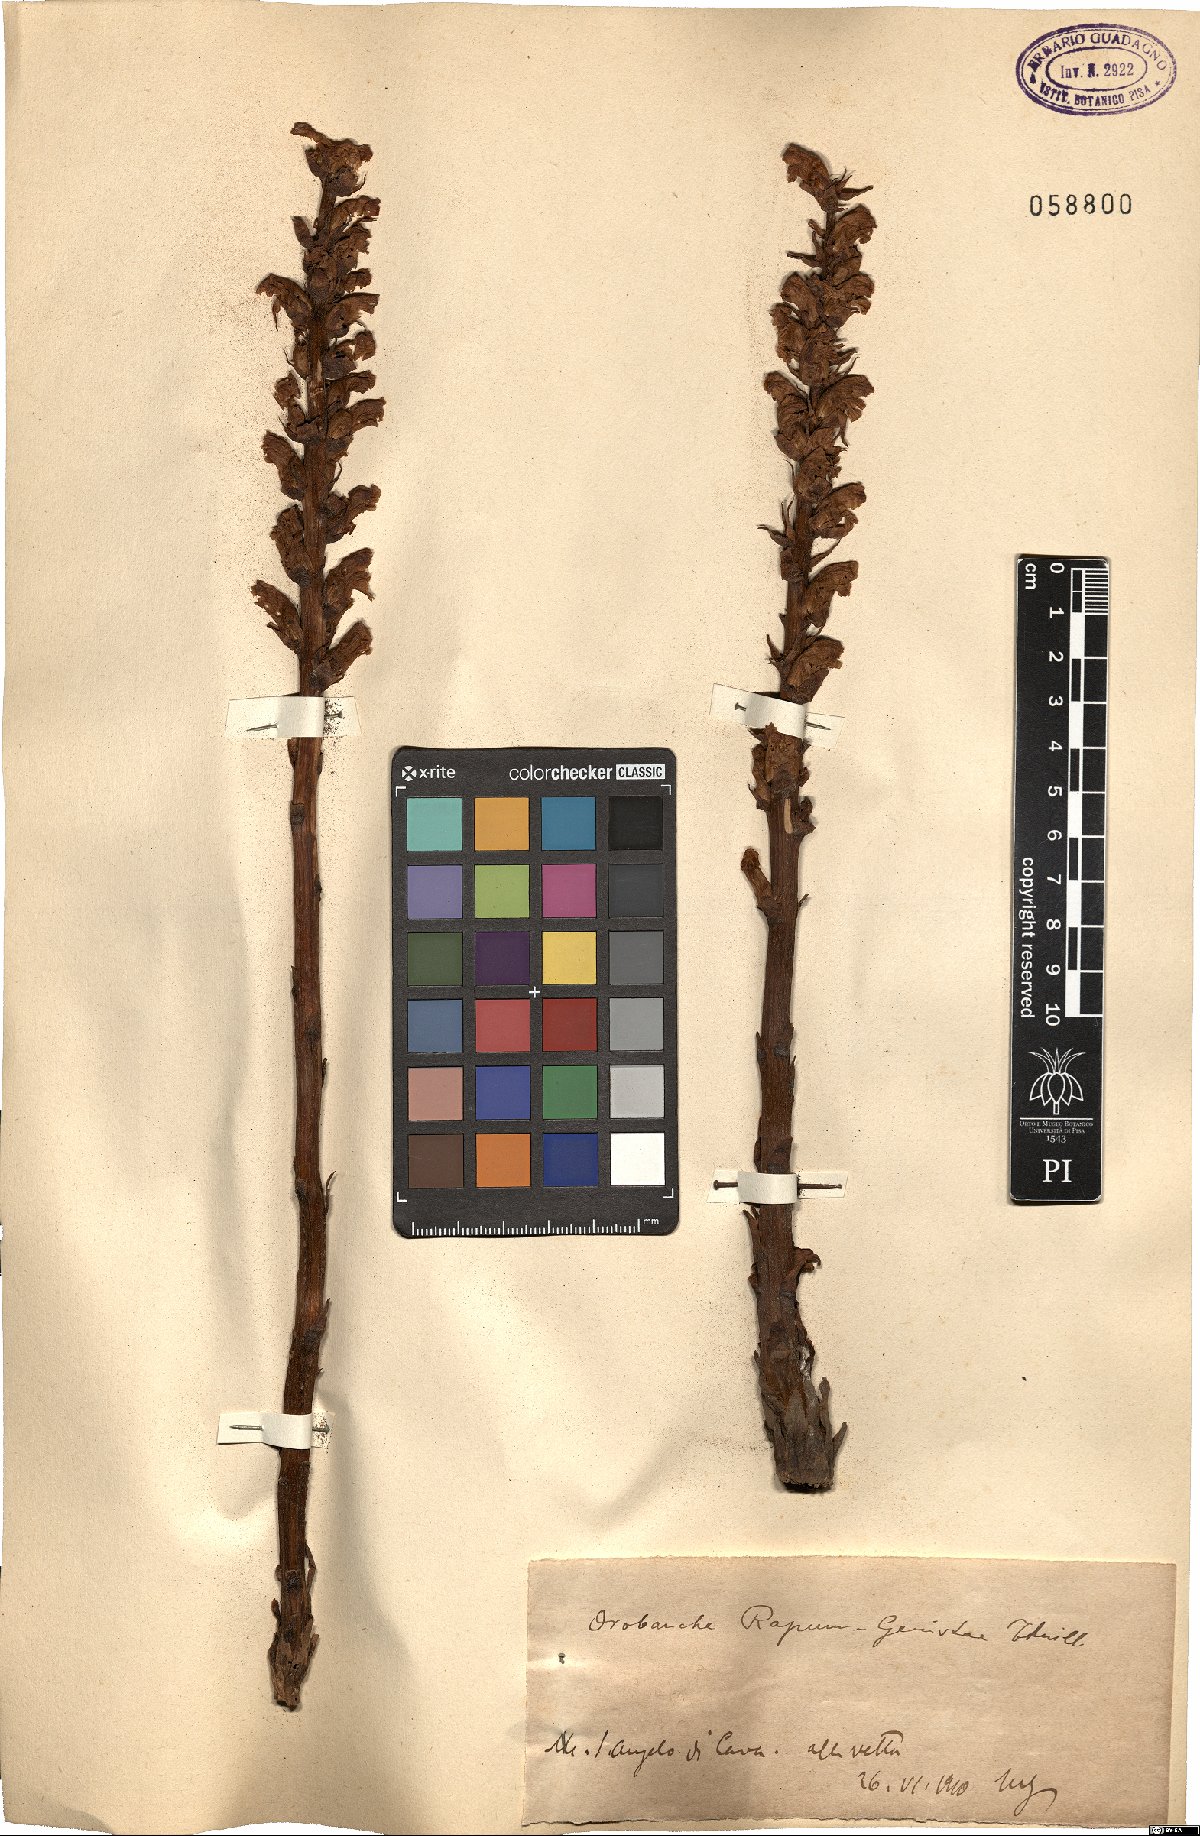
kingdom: Plantae
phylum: Tracheophyta
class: Magnoliopsida
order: Lamiales
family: Orobanchaceae
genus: Orobanche
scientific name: Orobanche rapum-genistae
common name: Greater broomrape
